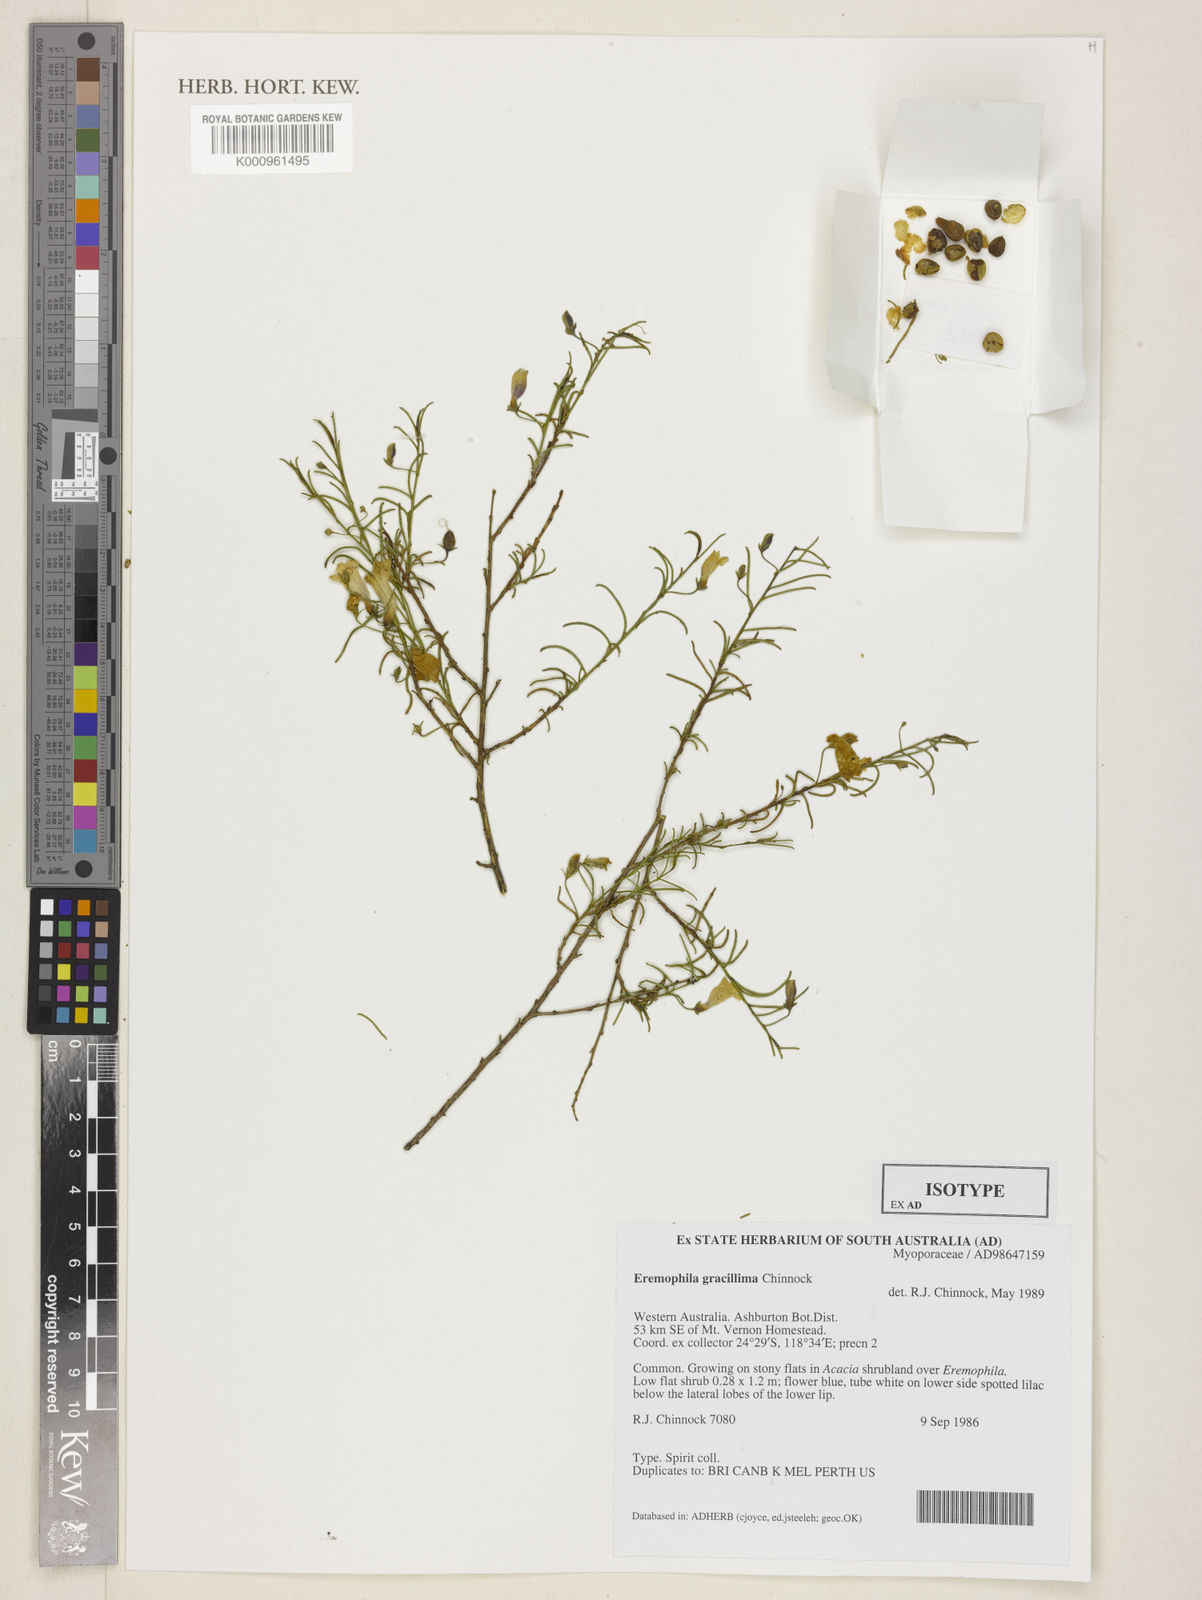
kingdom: Plantae
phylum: Tracheophyta
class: Magnoliopsida
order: Lamiales
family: Scrophulariaceae
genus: Eremophila
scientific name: Eremophila gracillima
